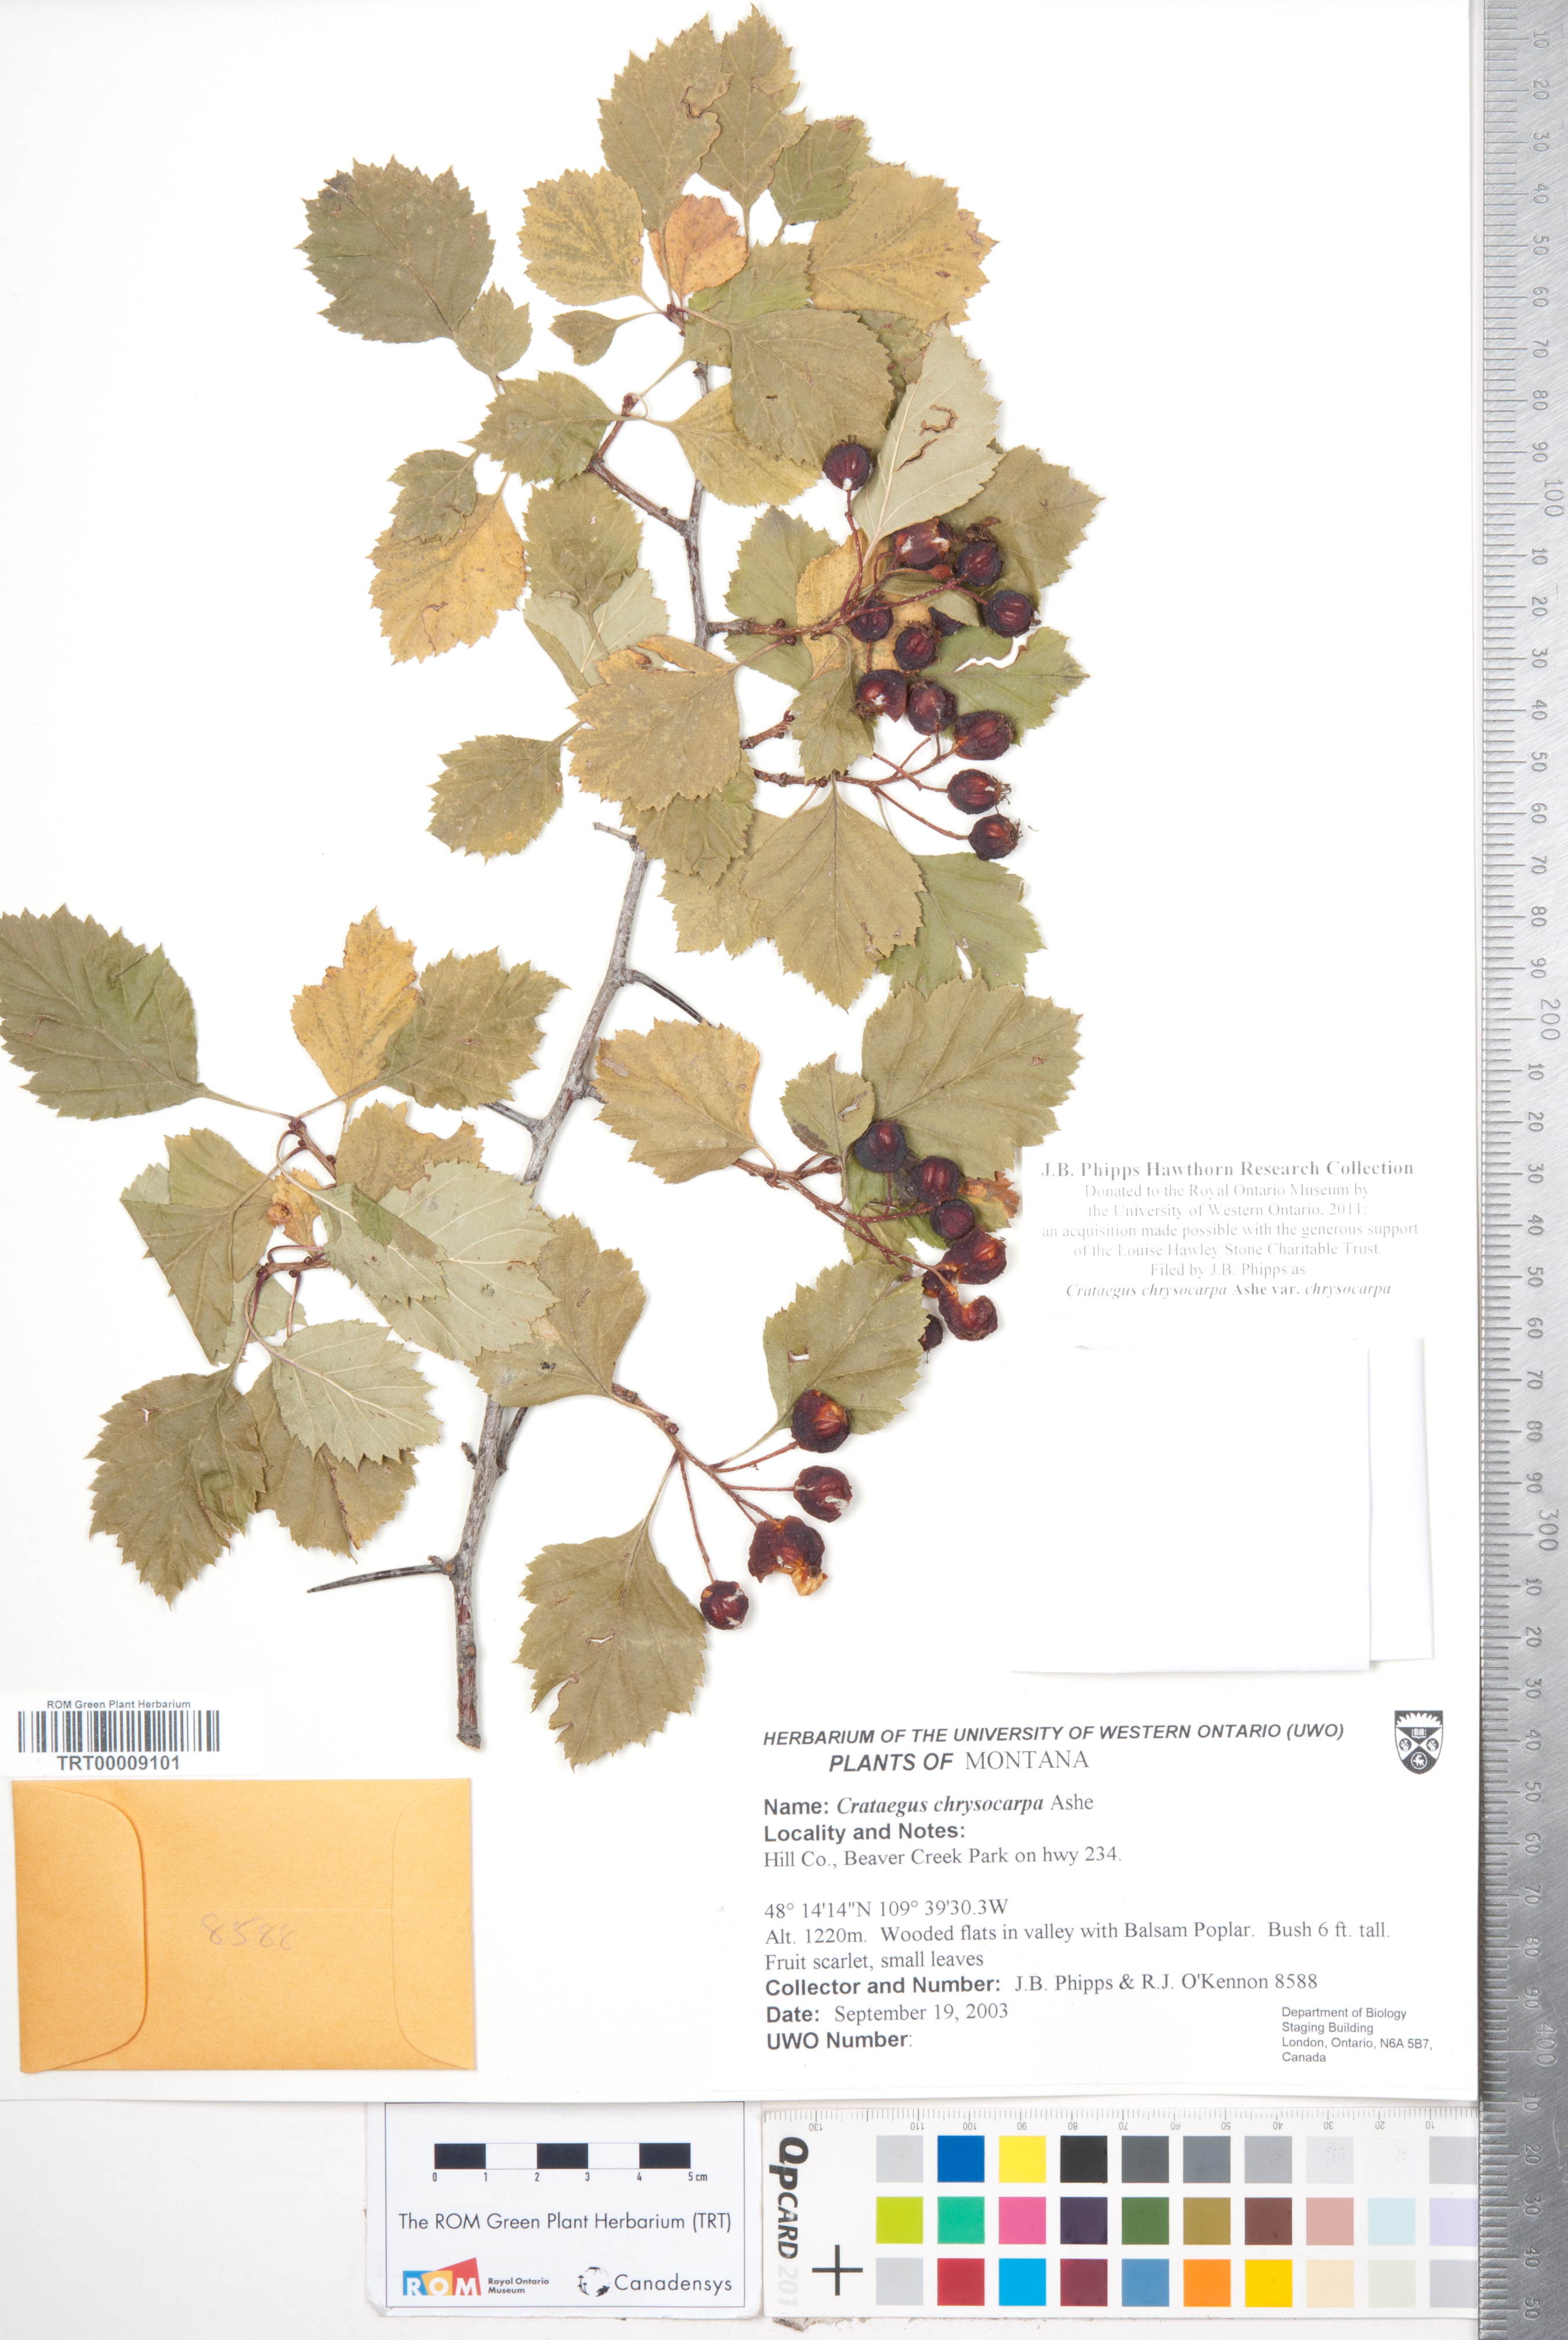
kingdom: Plantae
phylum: Tracheophyta
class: Magnoliopsida
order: Rosales
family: Rosaceae
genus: Crataegus
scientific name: Crataegus chrysocarpa
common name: Fire-berry hawthorn
